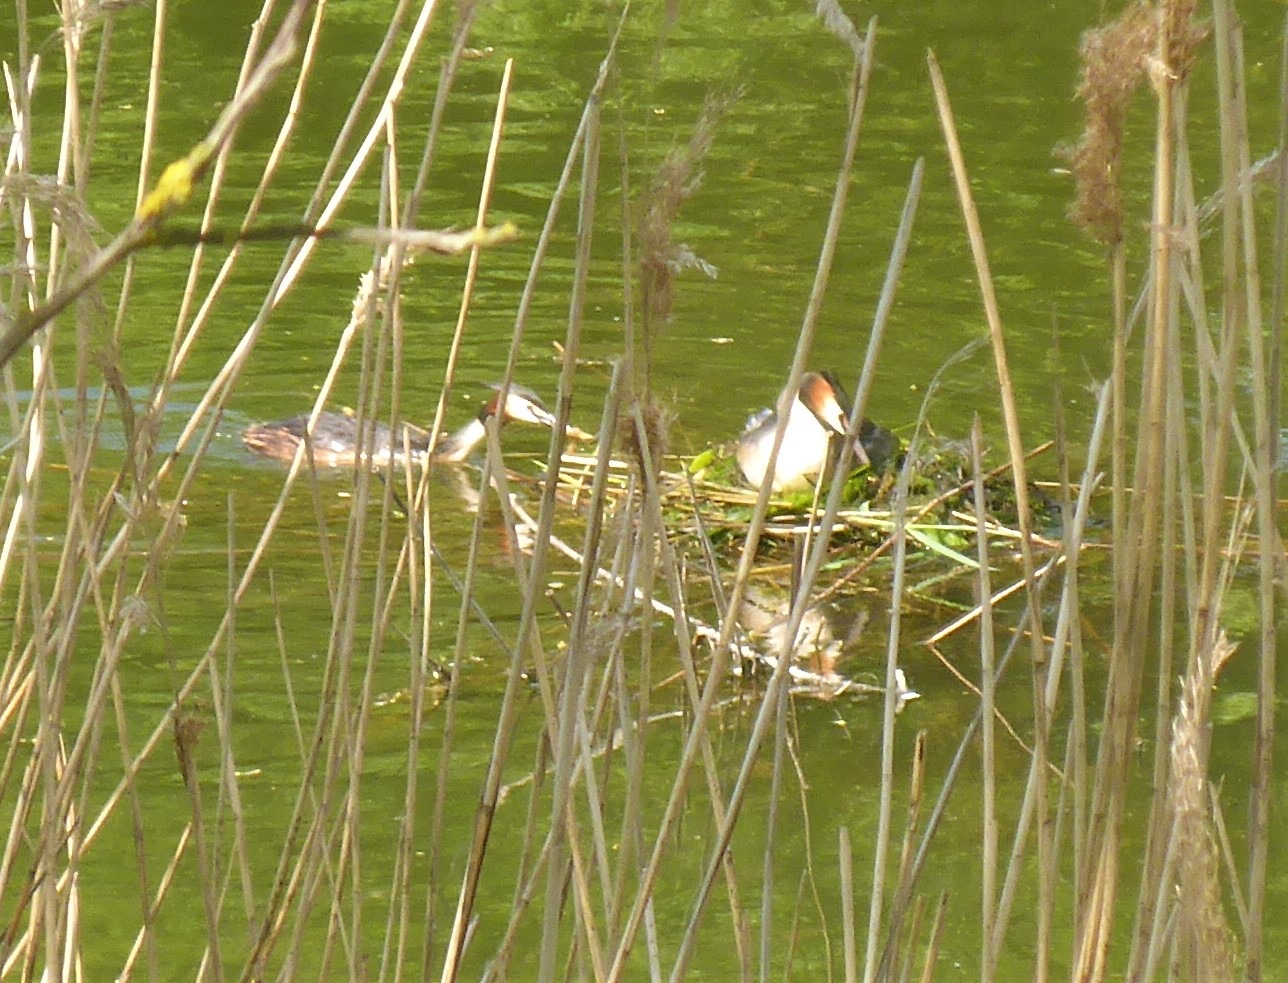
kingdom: Animalia
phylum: Chordata
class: Aves
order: Podicipediformes
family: Podicipedidae
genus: Podiceps
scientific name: Podiceps cristatus
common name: Toppet lappedykker
